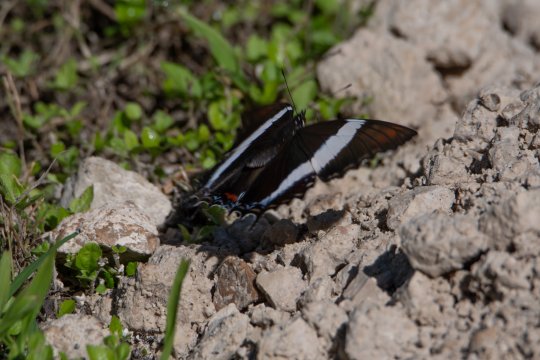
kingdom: Animalia
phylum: Arthropoda
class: Insecta
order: Lepidoptera
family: Nymphalidae
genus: Siproeta
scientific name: Siproeta superba
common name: Broad-banded Page
